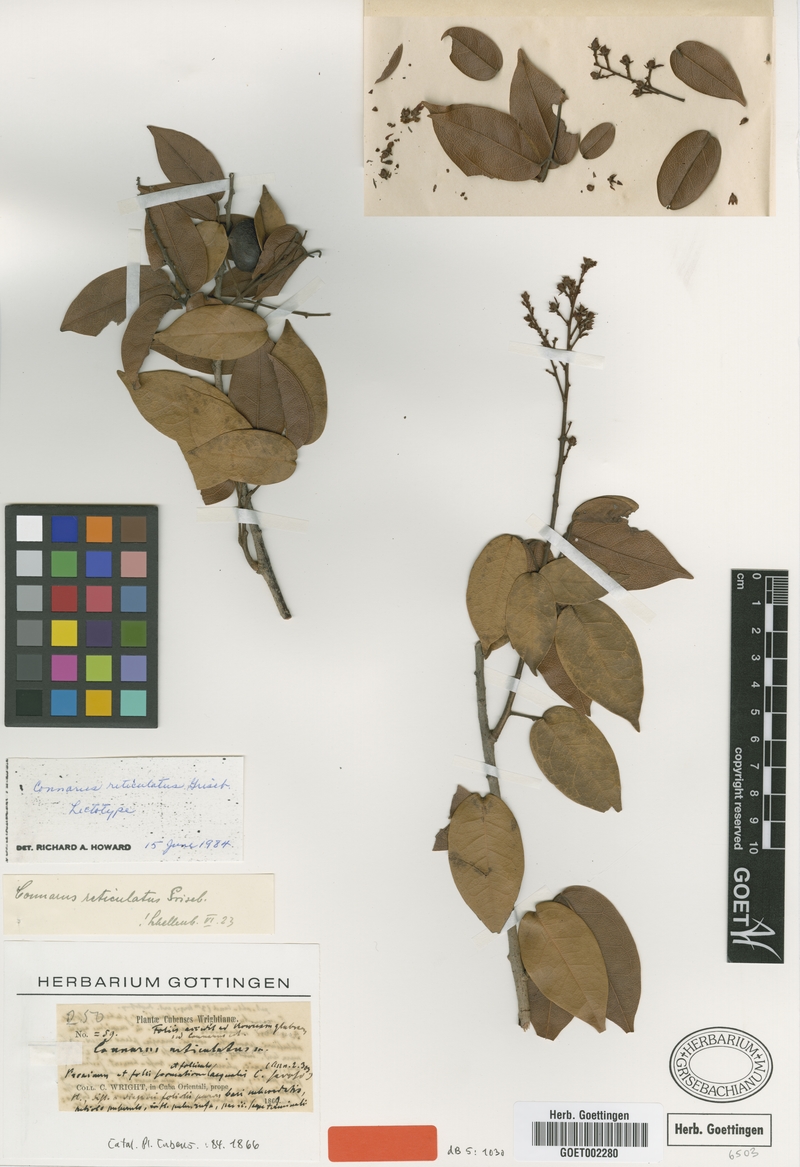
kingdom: Plantae
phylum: Tracheophyta
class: Magnoliopsida
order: Oxalidales
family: Connaraceae
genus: Connarus
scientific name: Connarus reticulatus
